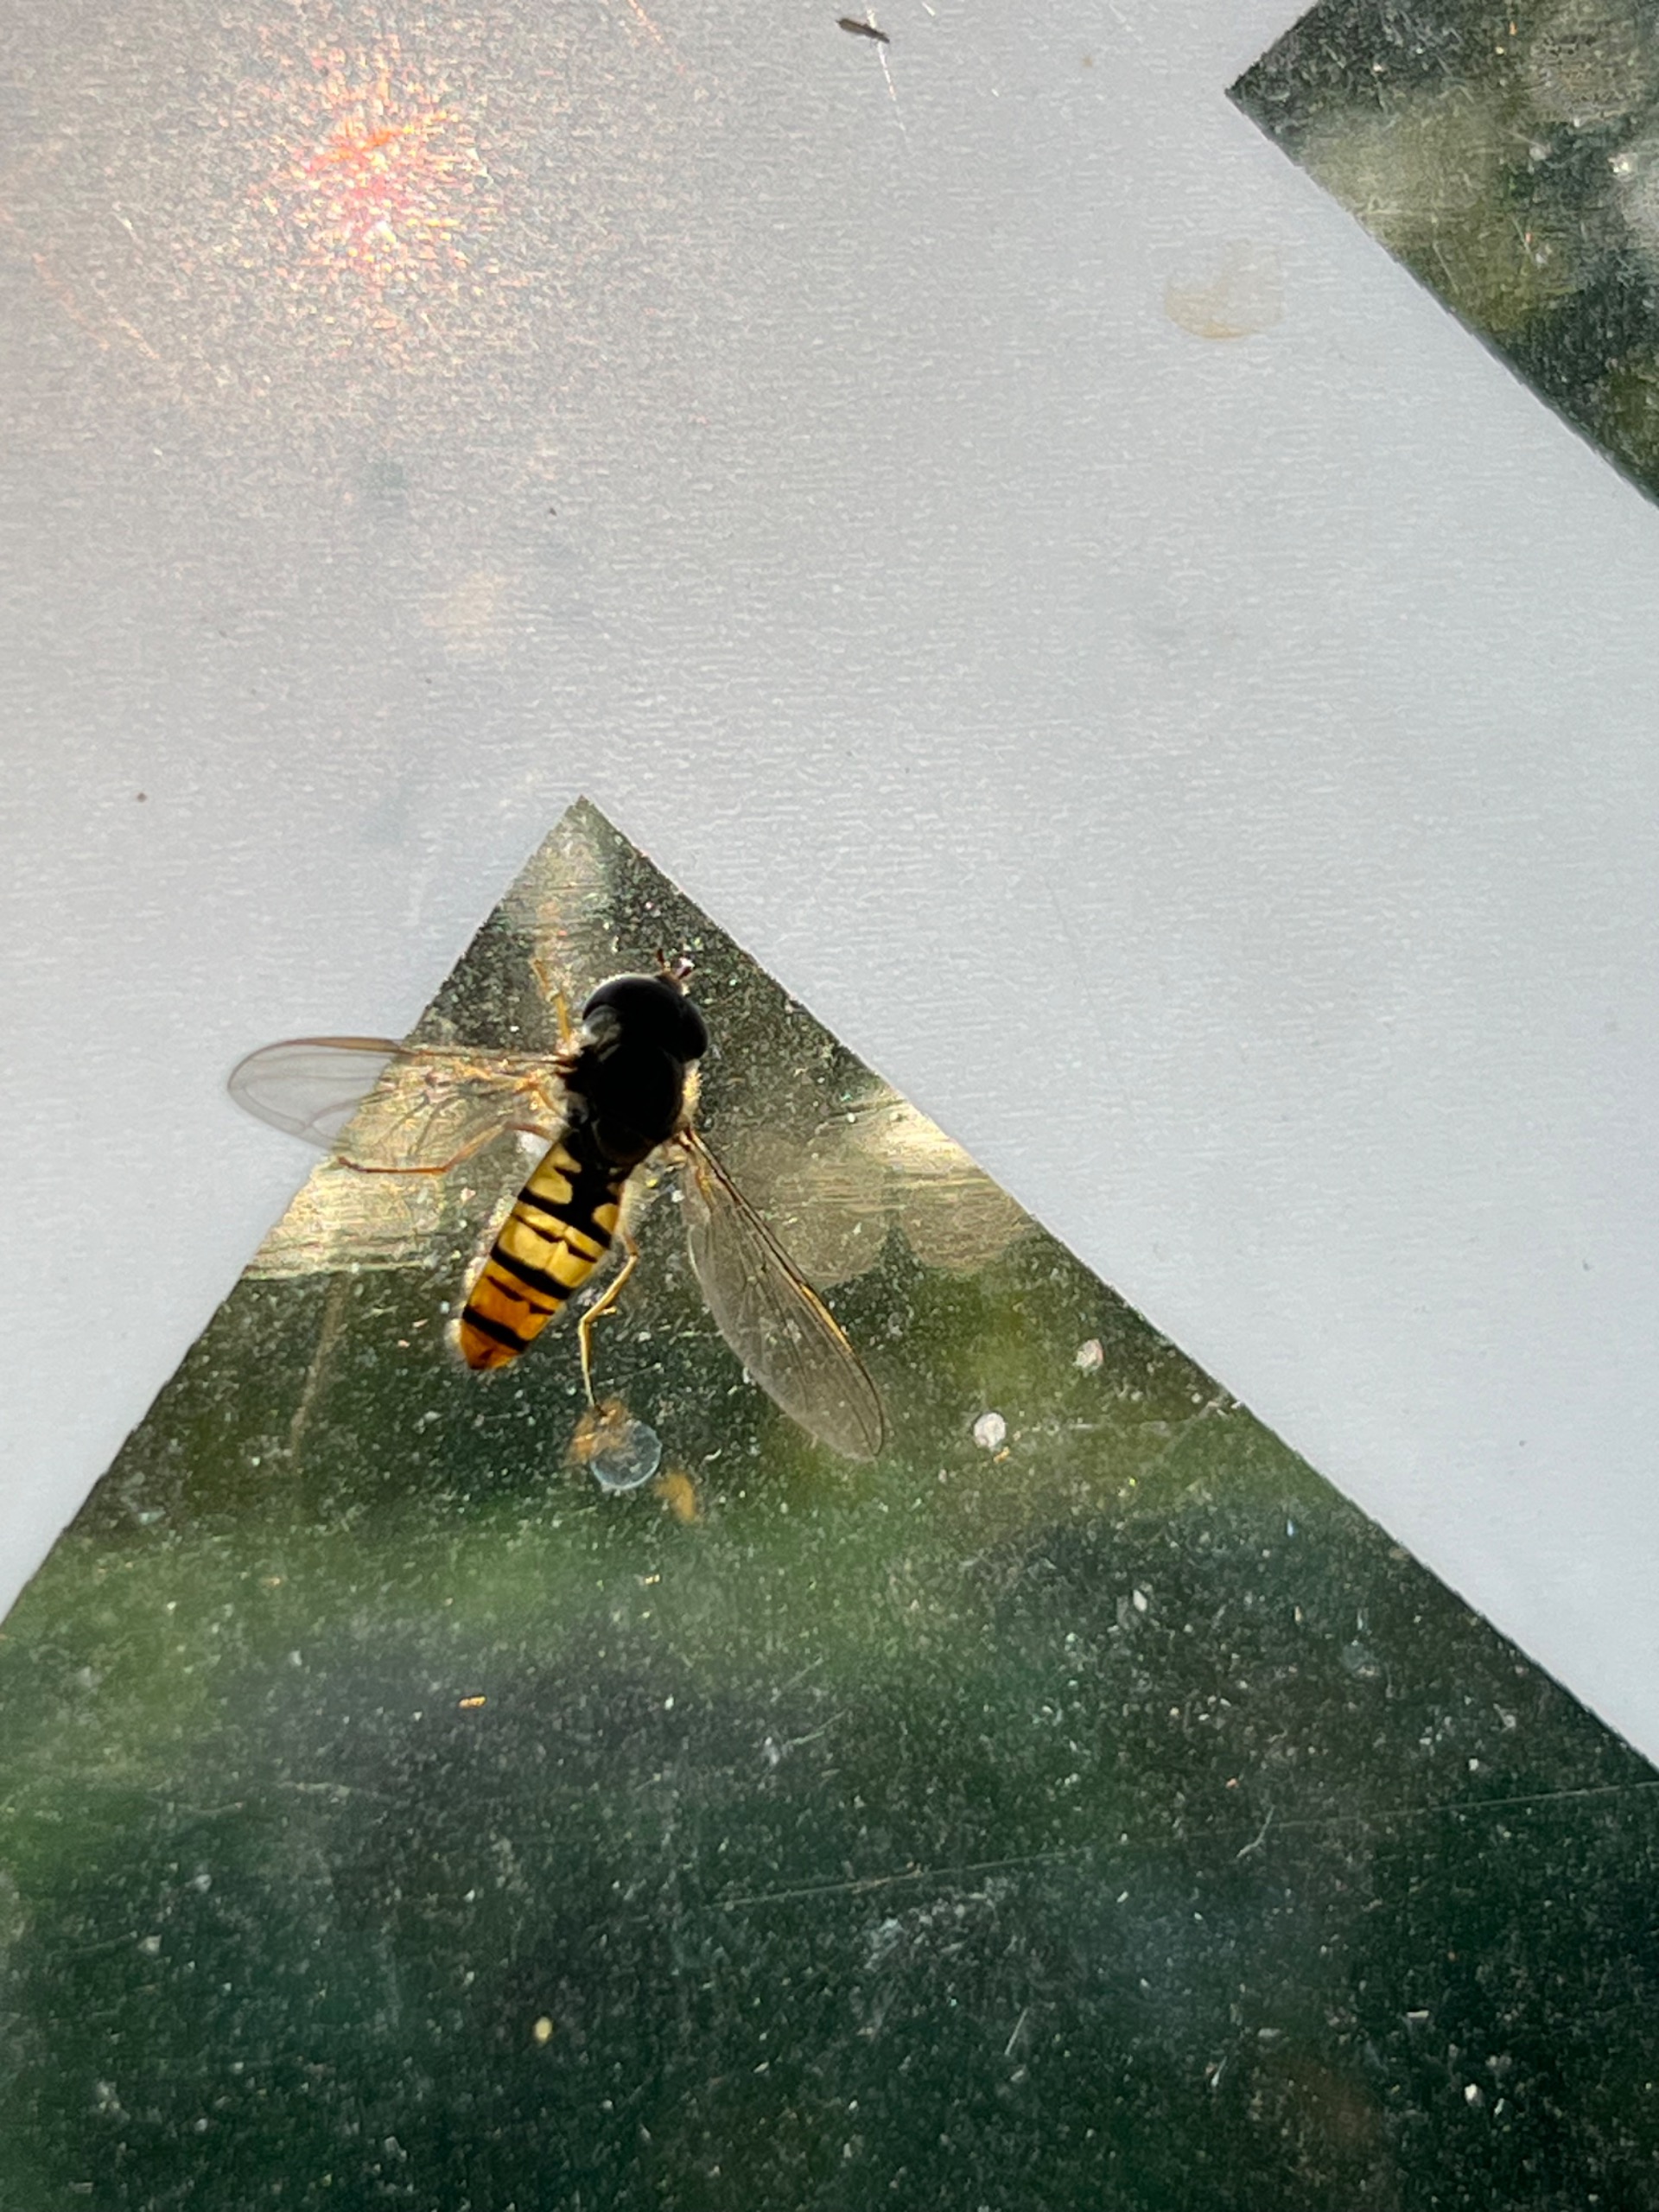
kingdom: Animalia
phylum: Arthropoda
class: Insecta
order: Diptera
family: Syrphidae
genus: Episyrphus
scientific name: Episyrphus balteatus
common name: Dobbeltbåndet svirreflue
